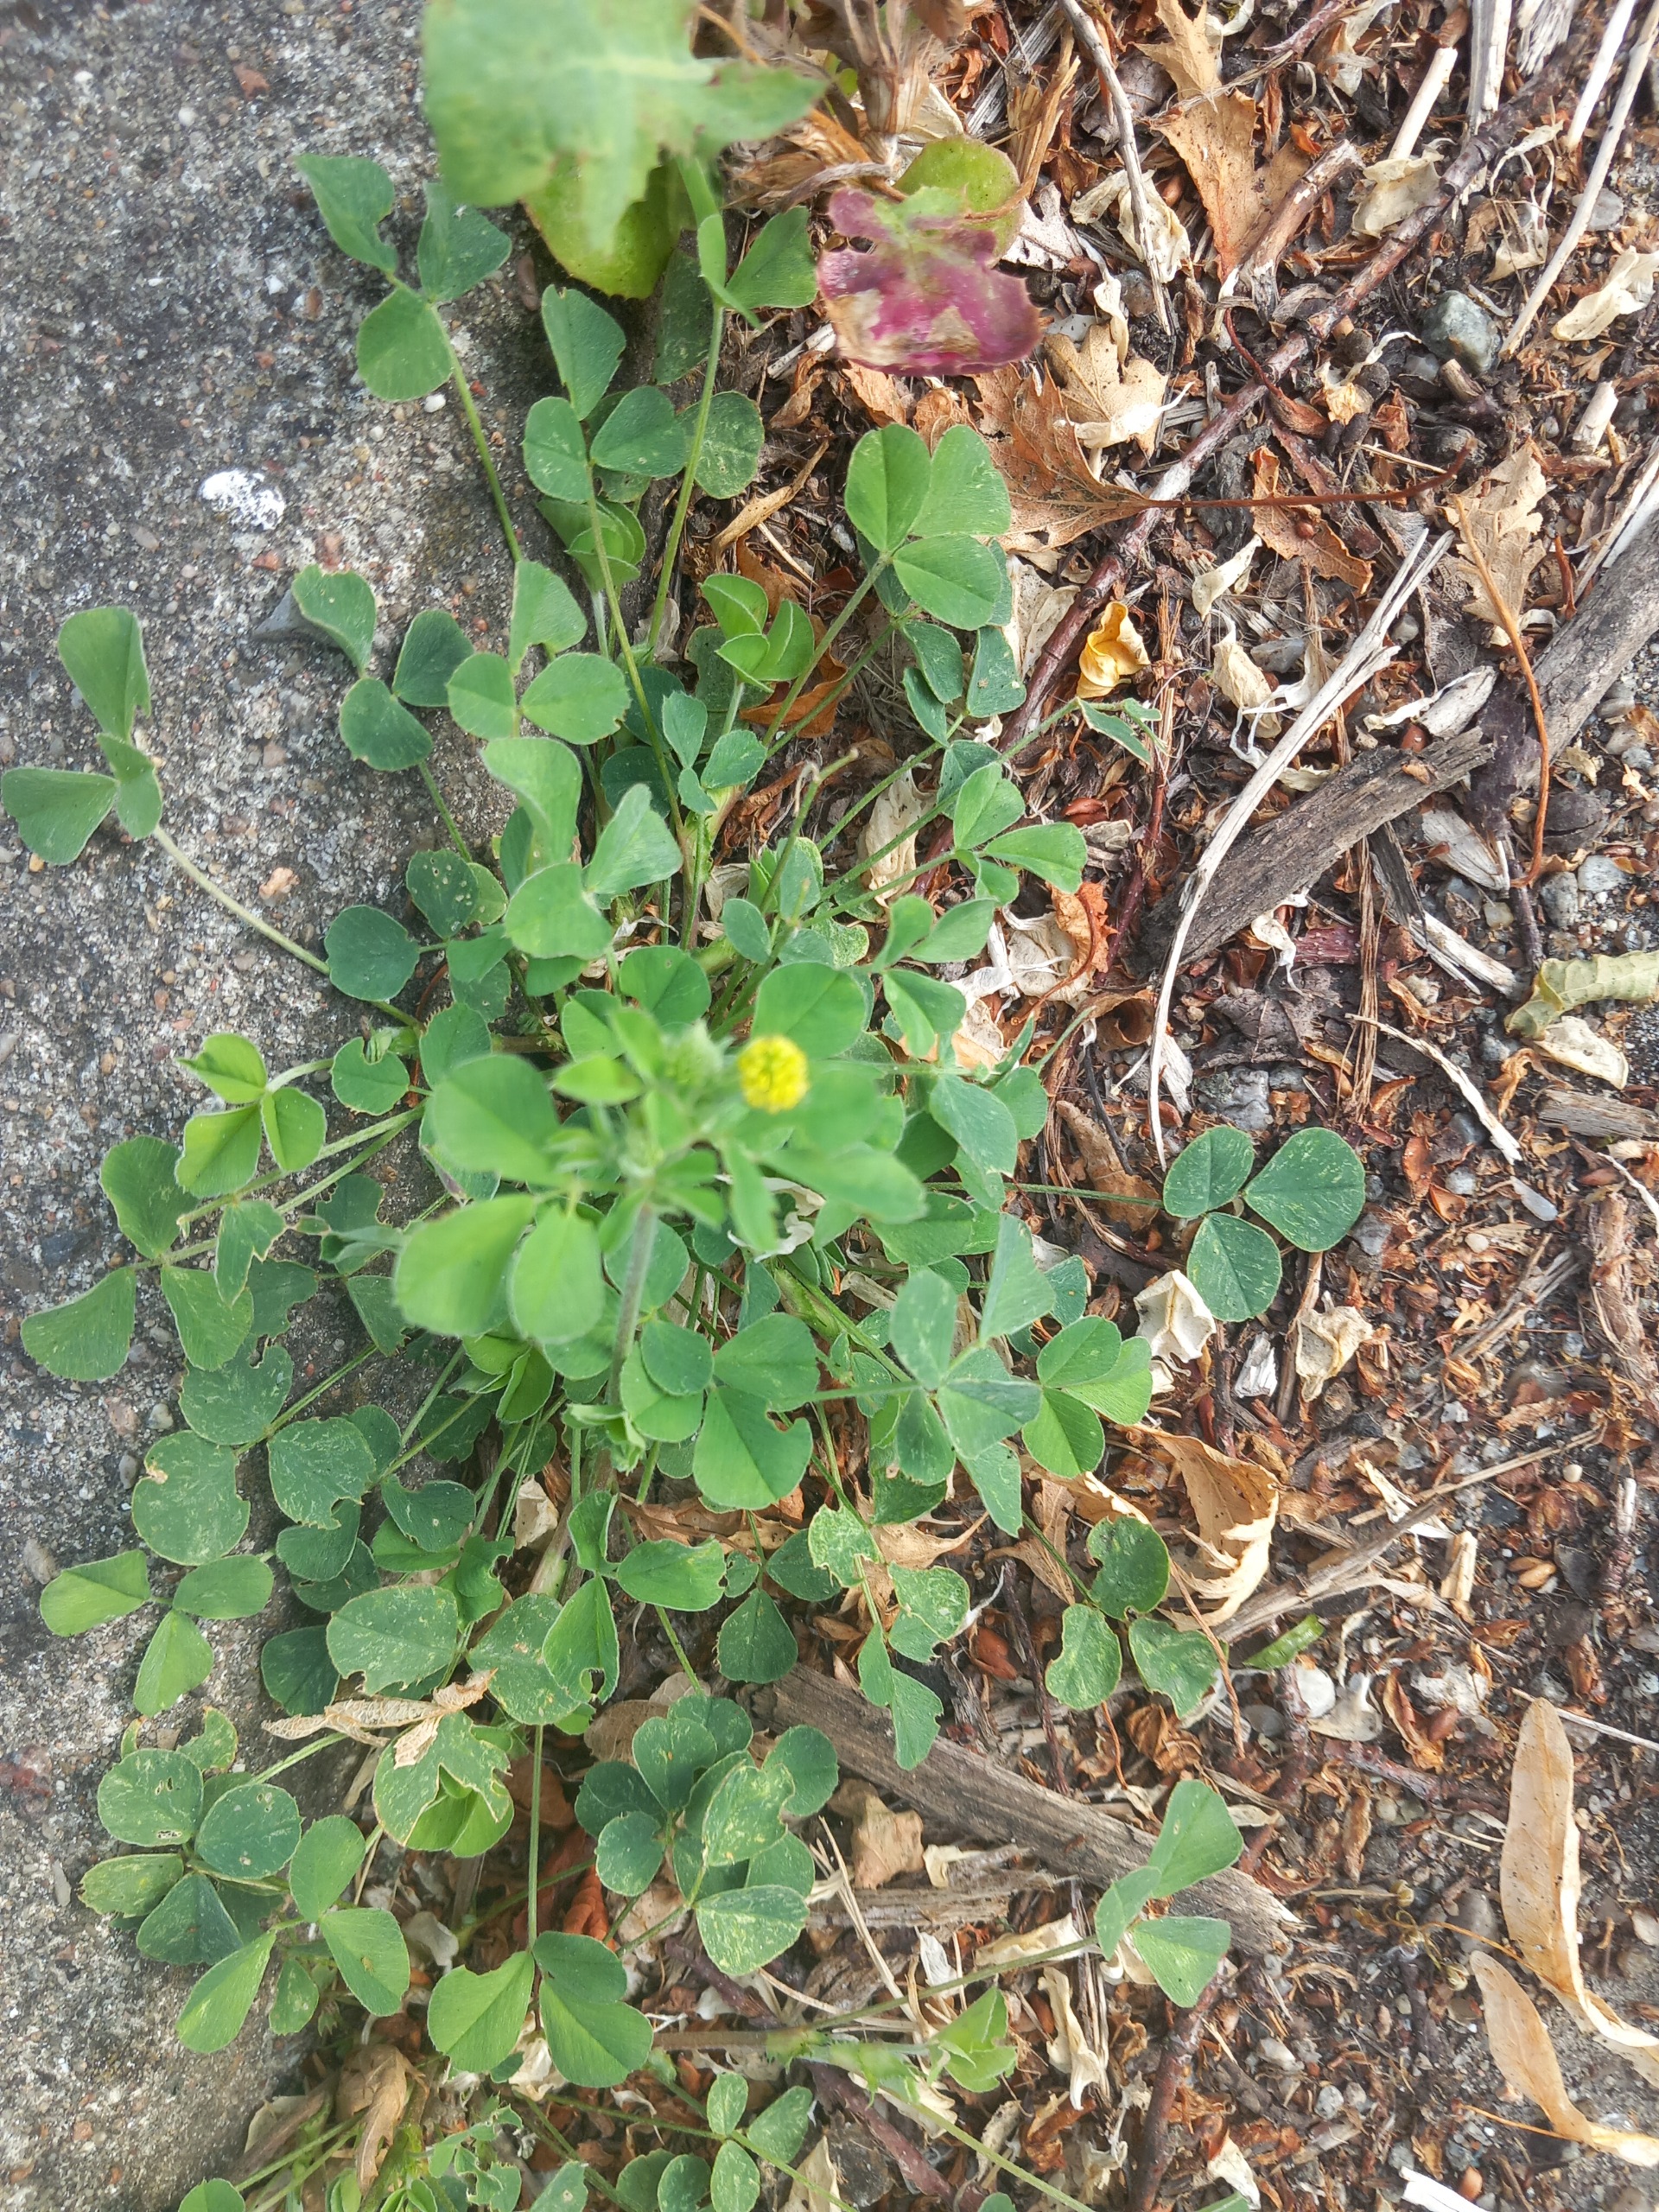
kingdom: Plantae
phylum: Tracheophyta
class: Magnoliopsida
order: Fabales
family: Fabaceae
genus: Medicago
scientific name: Medicago lupulina
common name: Humle-sneglebælg
